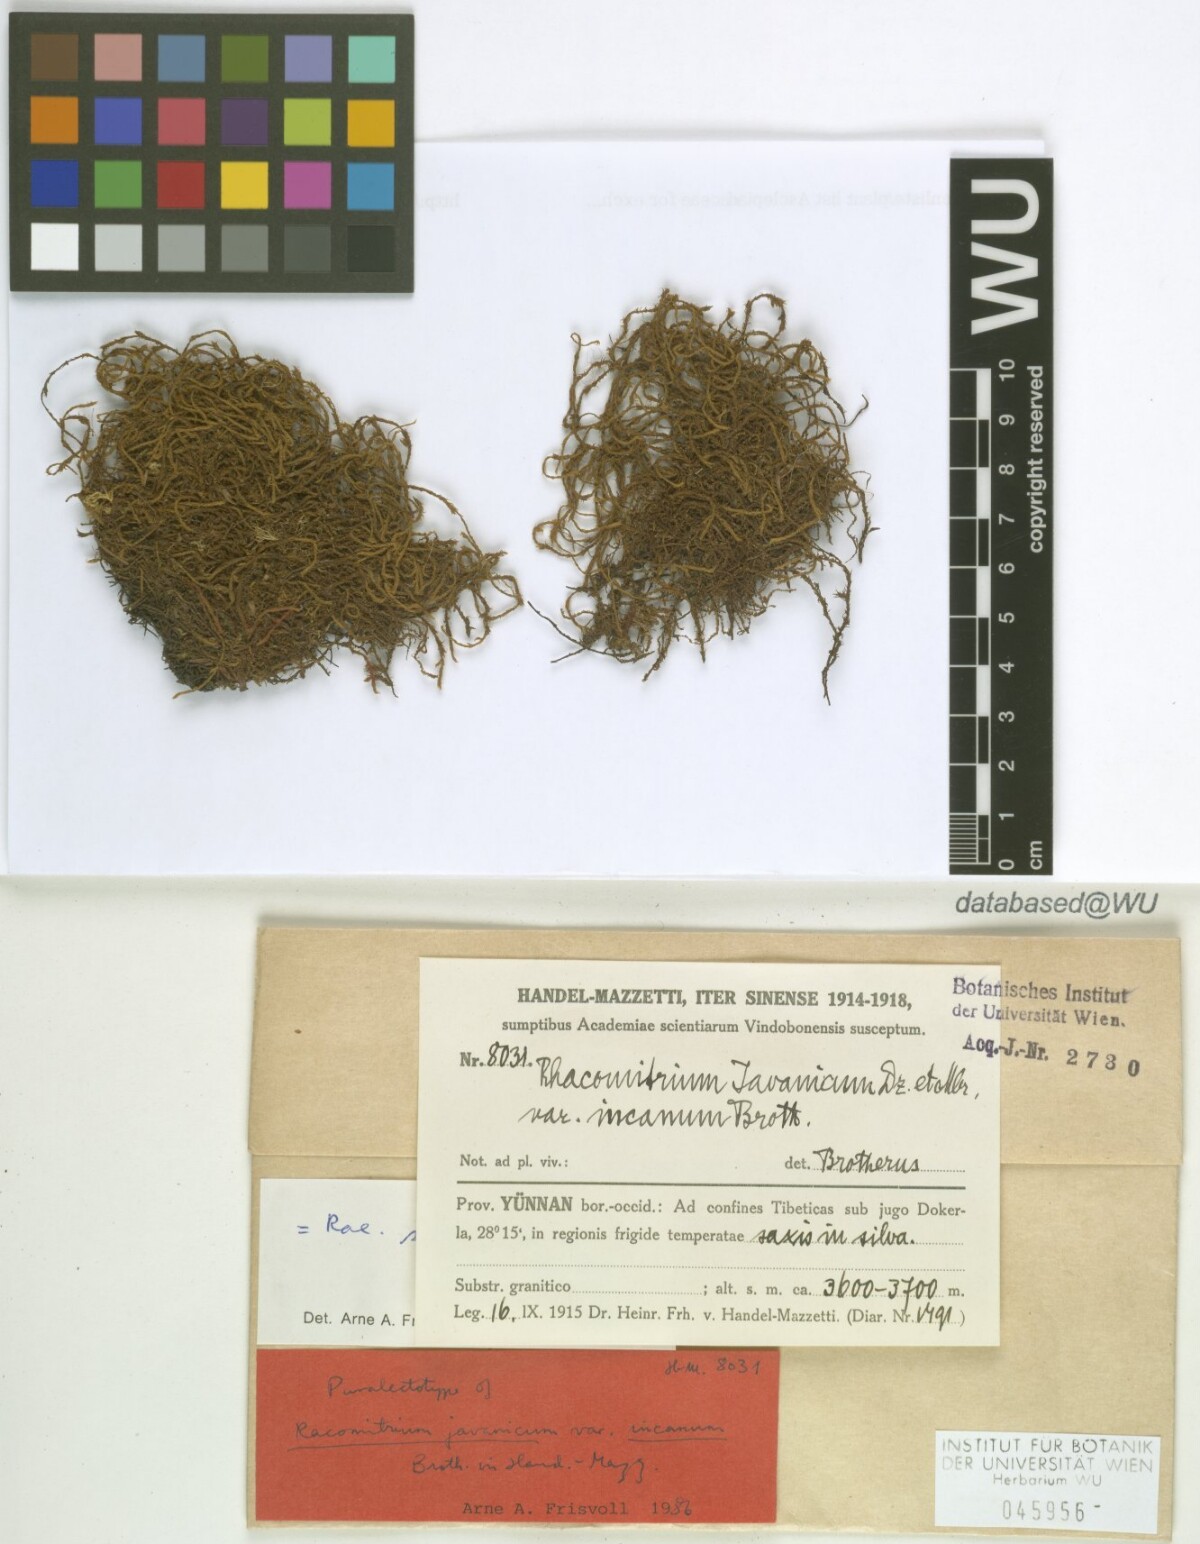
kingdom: Plantae
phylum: Bryophyta
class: Bryopsida
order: Grimmiales
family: Grimmiaceae
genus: Bucklandiella
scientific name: Bucklandiella subsecunda
